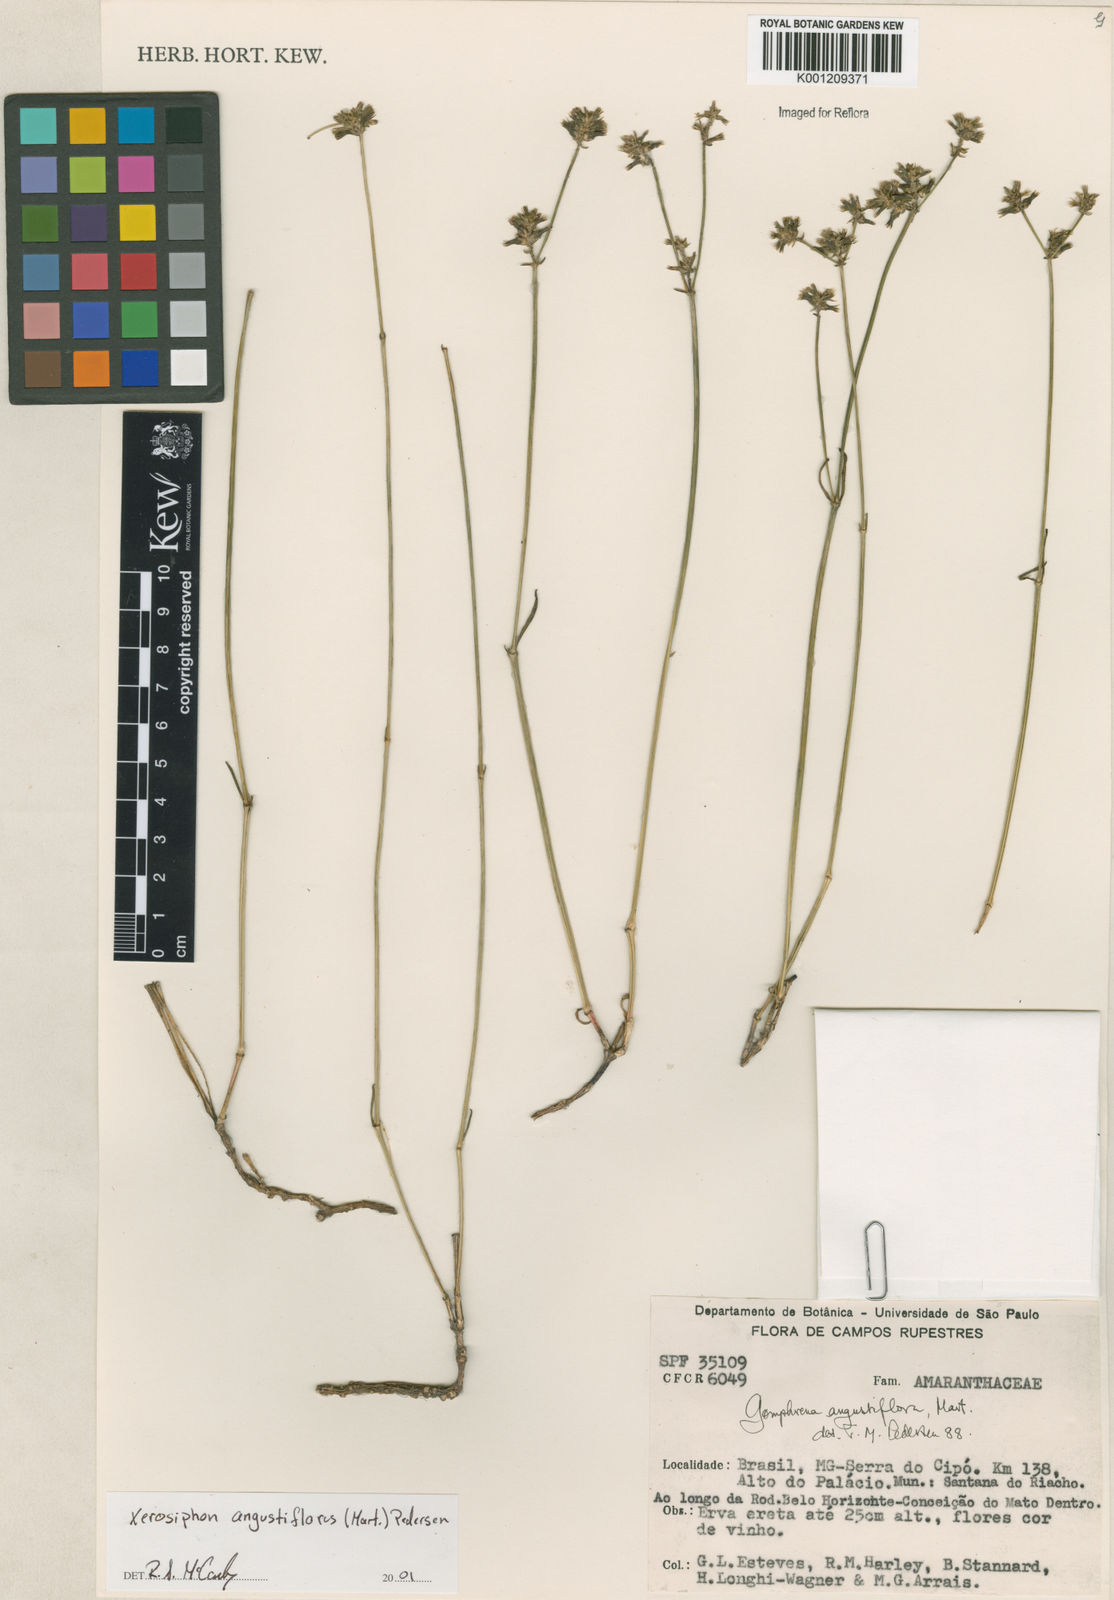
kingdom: Plantae
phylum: Tracheophyta
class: Magnoliopsida
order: Caryophyllales
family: Amaranthaceae
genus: Gomphrena
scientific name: Gomphrena angustiflora
